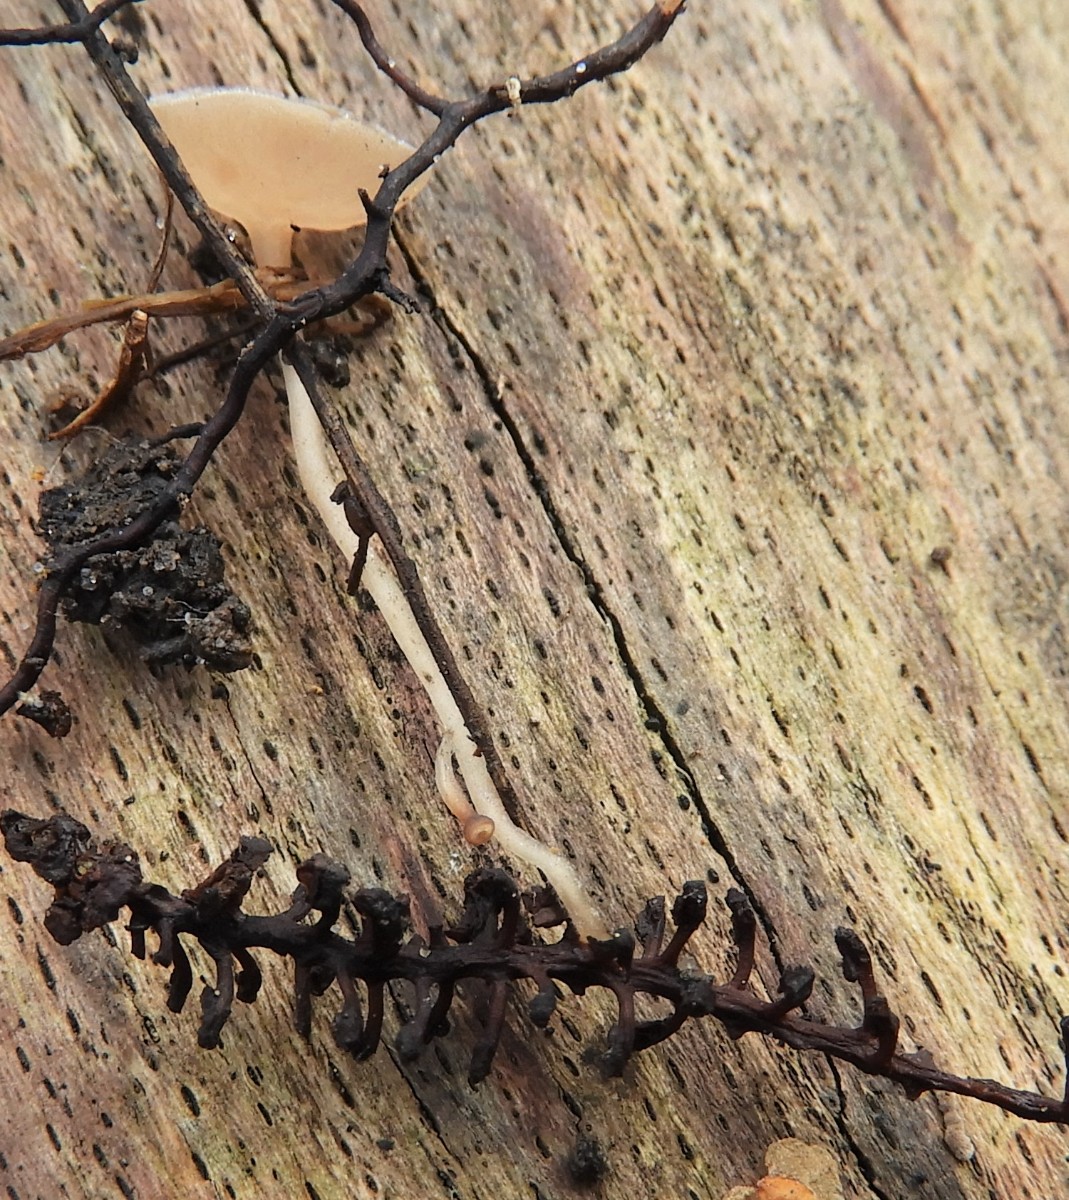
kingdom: Fungi
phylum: Ascomycota
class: Leotiomycetes
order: Helotiales
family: Sclerotiniaceae
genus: Ciboria
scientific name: Ciboria amentacea
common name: ellerakle-knoldskive
